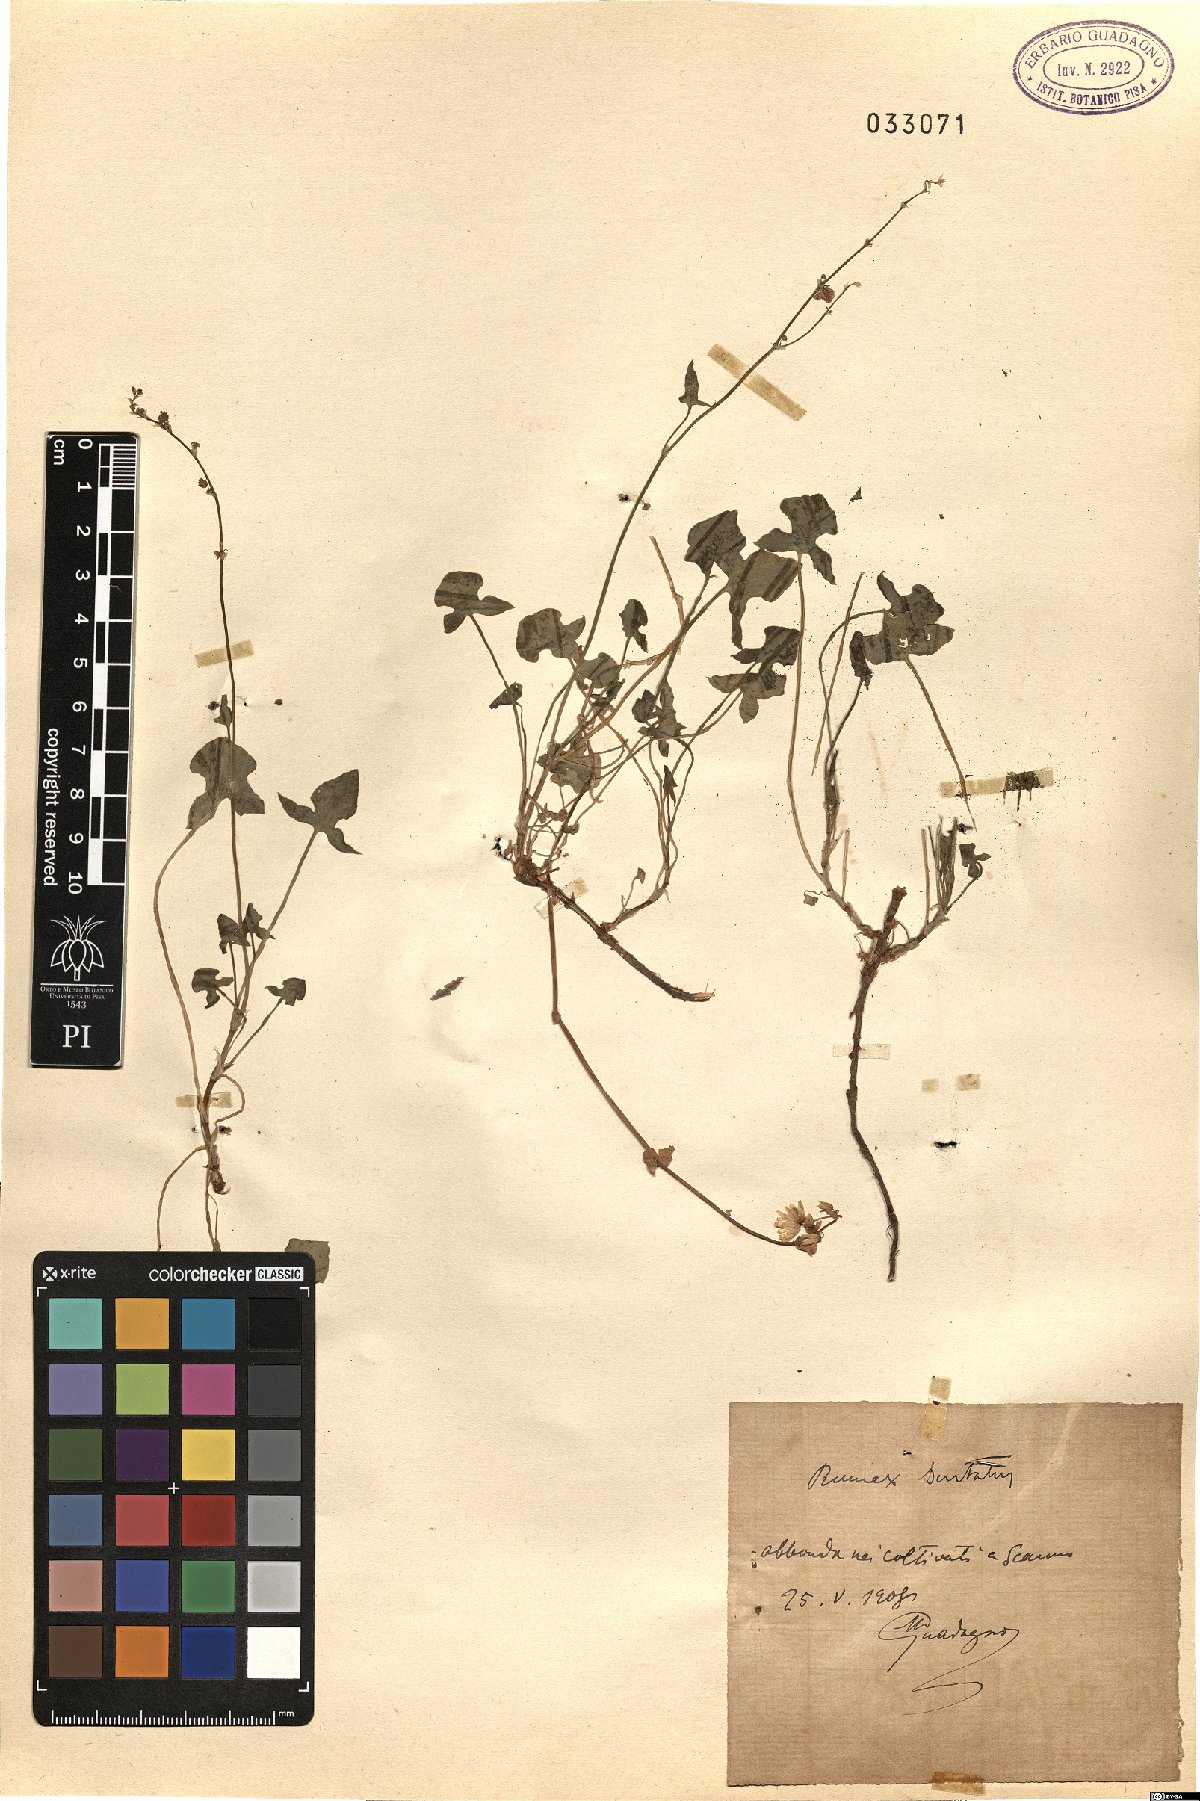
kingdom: Plantae
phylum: Tracheophyta
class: Magnoliopsida
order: Caryophyllales
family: Polygonaceae
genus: Rumex
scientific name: Rumex scutatus
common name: French sorrel
